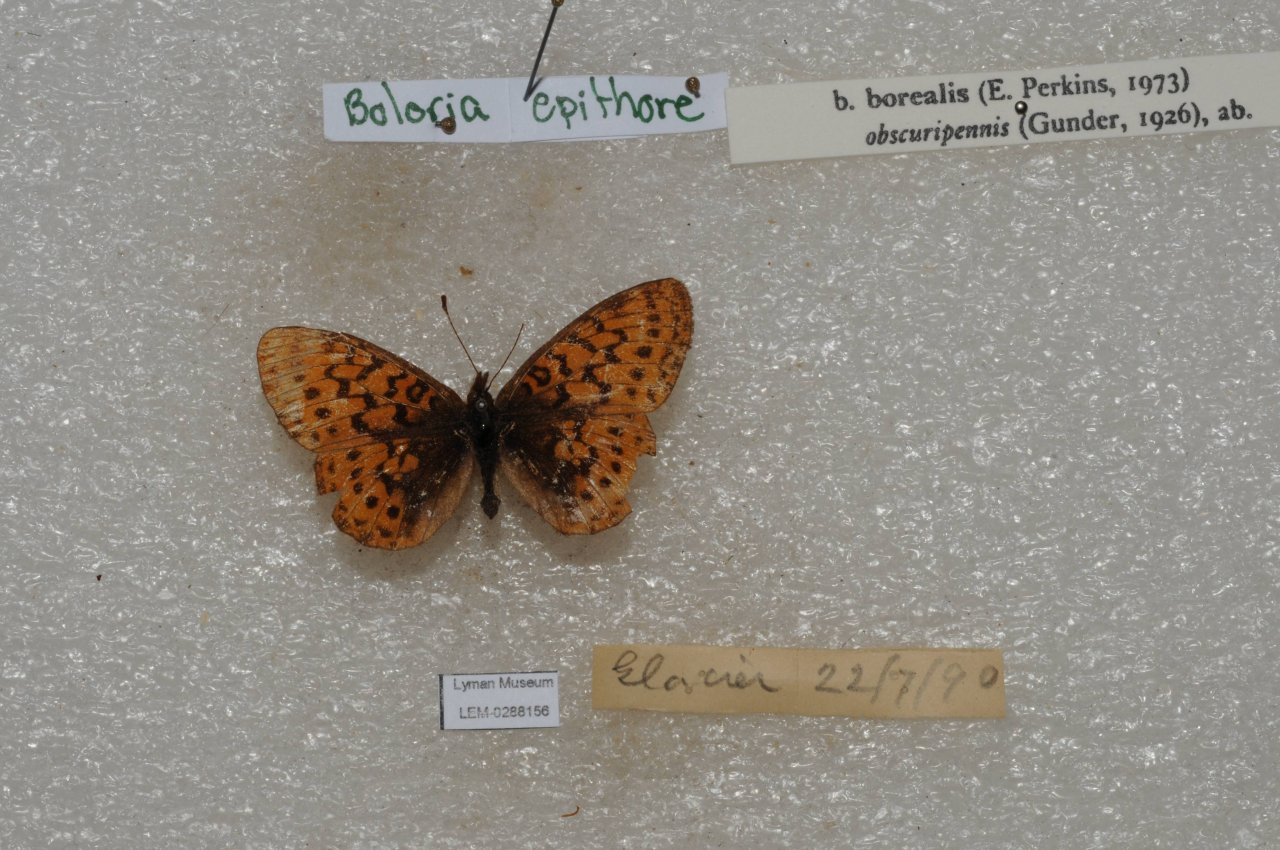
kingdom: Animalia
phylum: Arthropoda
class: Insecta
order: Lepidoptera
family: Nymphalidae
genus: Boloria
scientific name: Boloria epithore
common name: Pacific Fritillary
